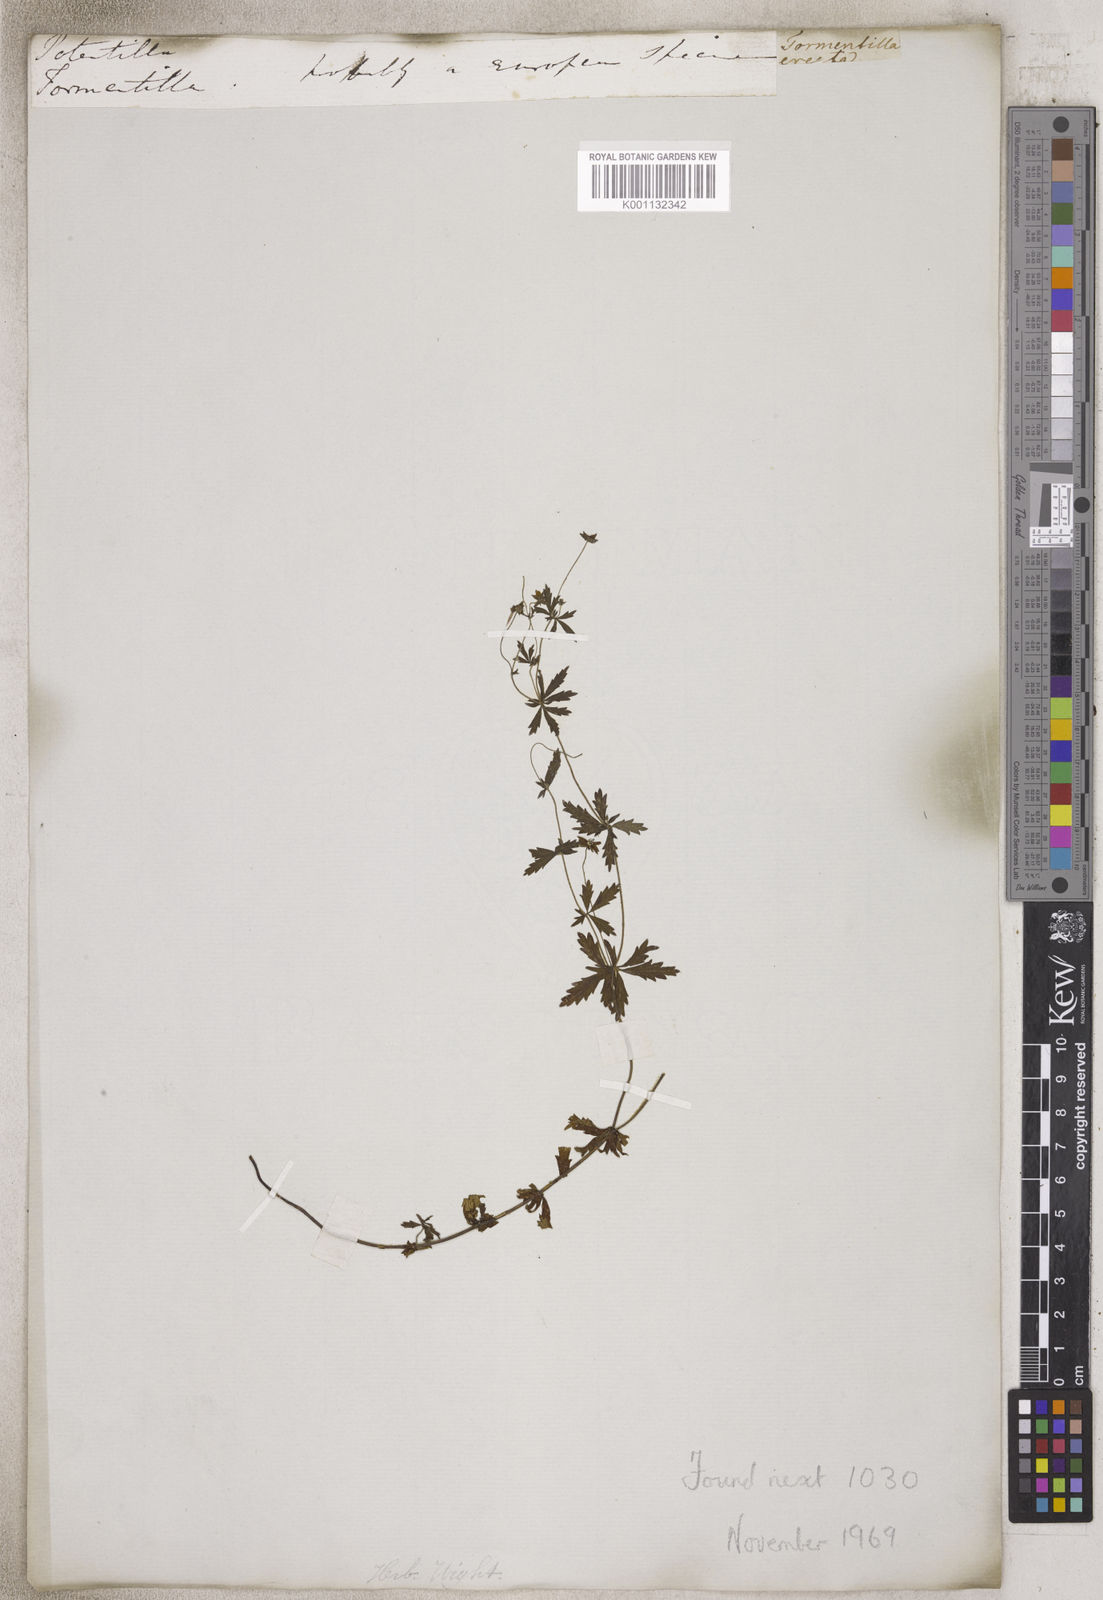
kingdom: Plantae
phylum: Tracheophyta
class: Magnoliopsida
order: Rosales
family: Rosaceae
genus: Potentilla
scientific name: Potentilla
